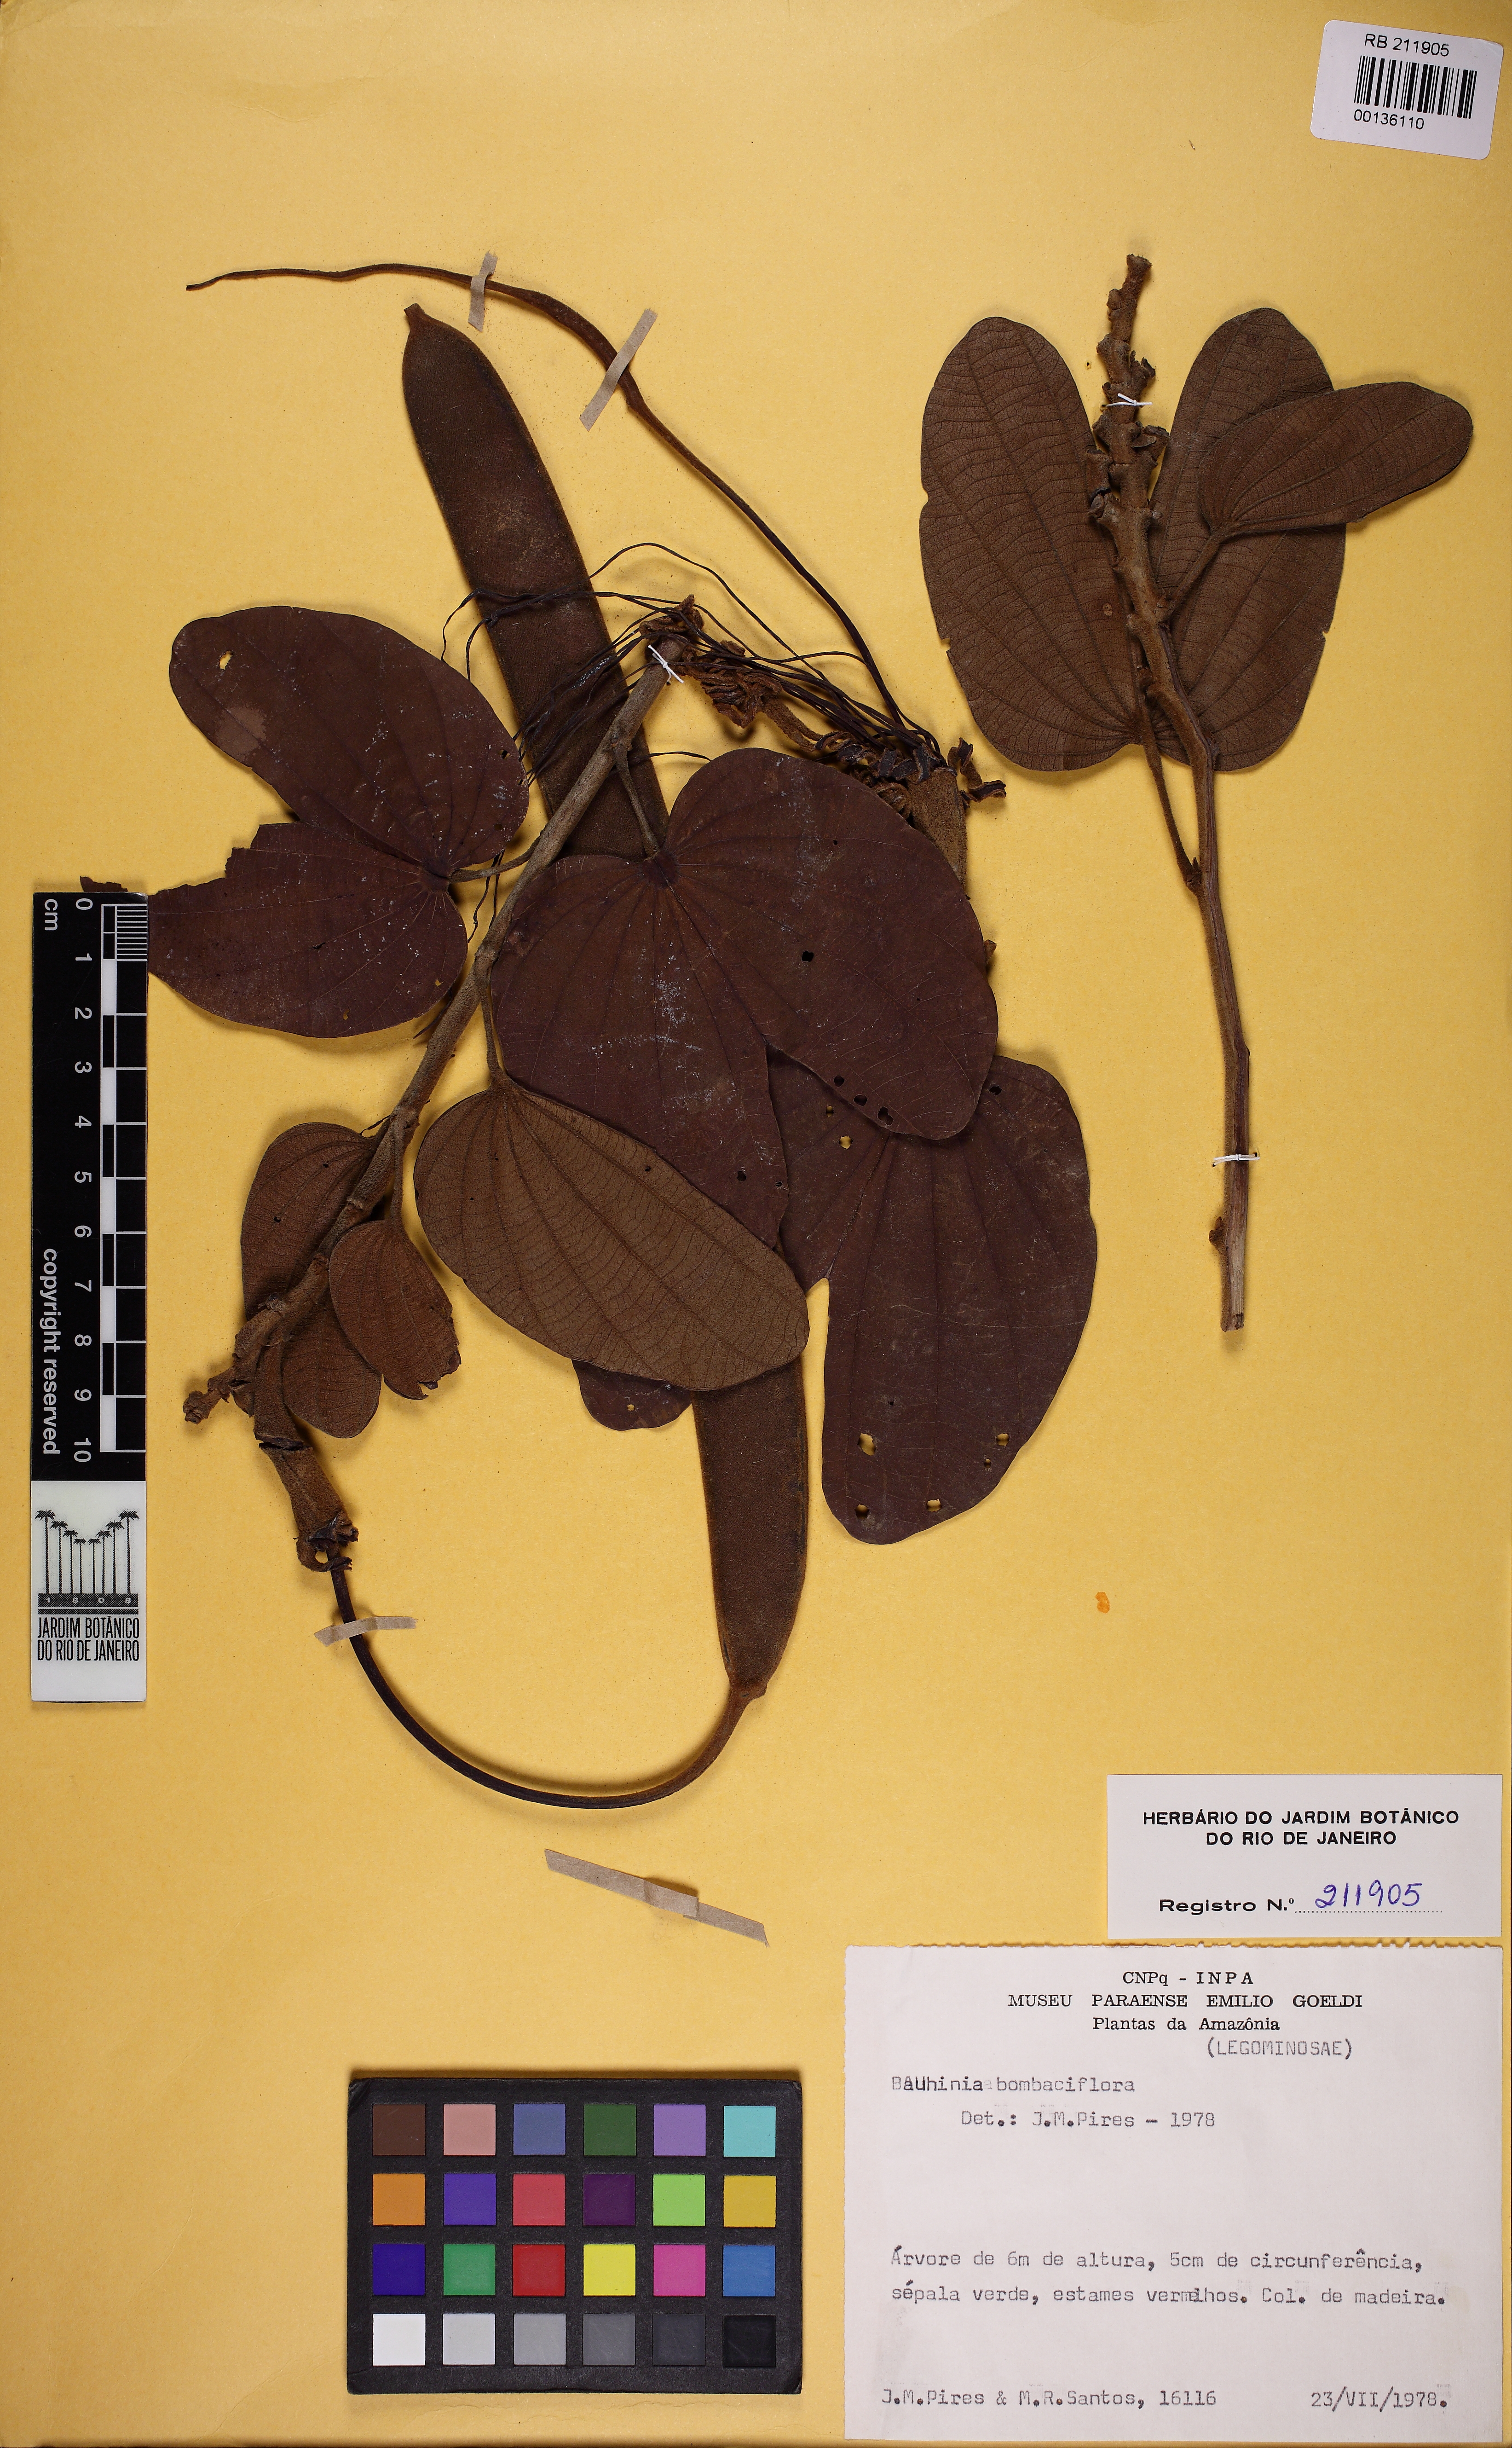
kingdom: Plantae
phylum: Tracheophyta
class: Magnoliopsida
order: Fabales
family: Fabaceae
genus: Bauhinia
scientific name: Bauhinia bombaciflora
